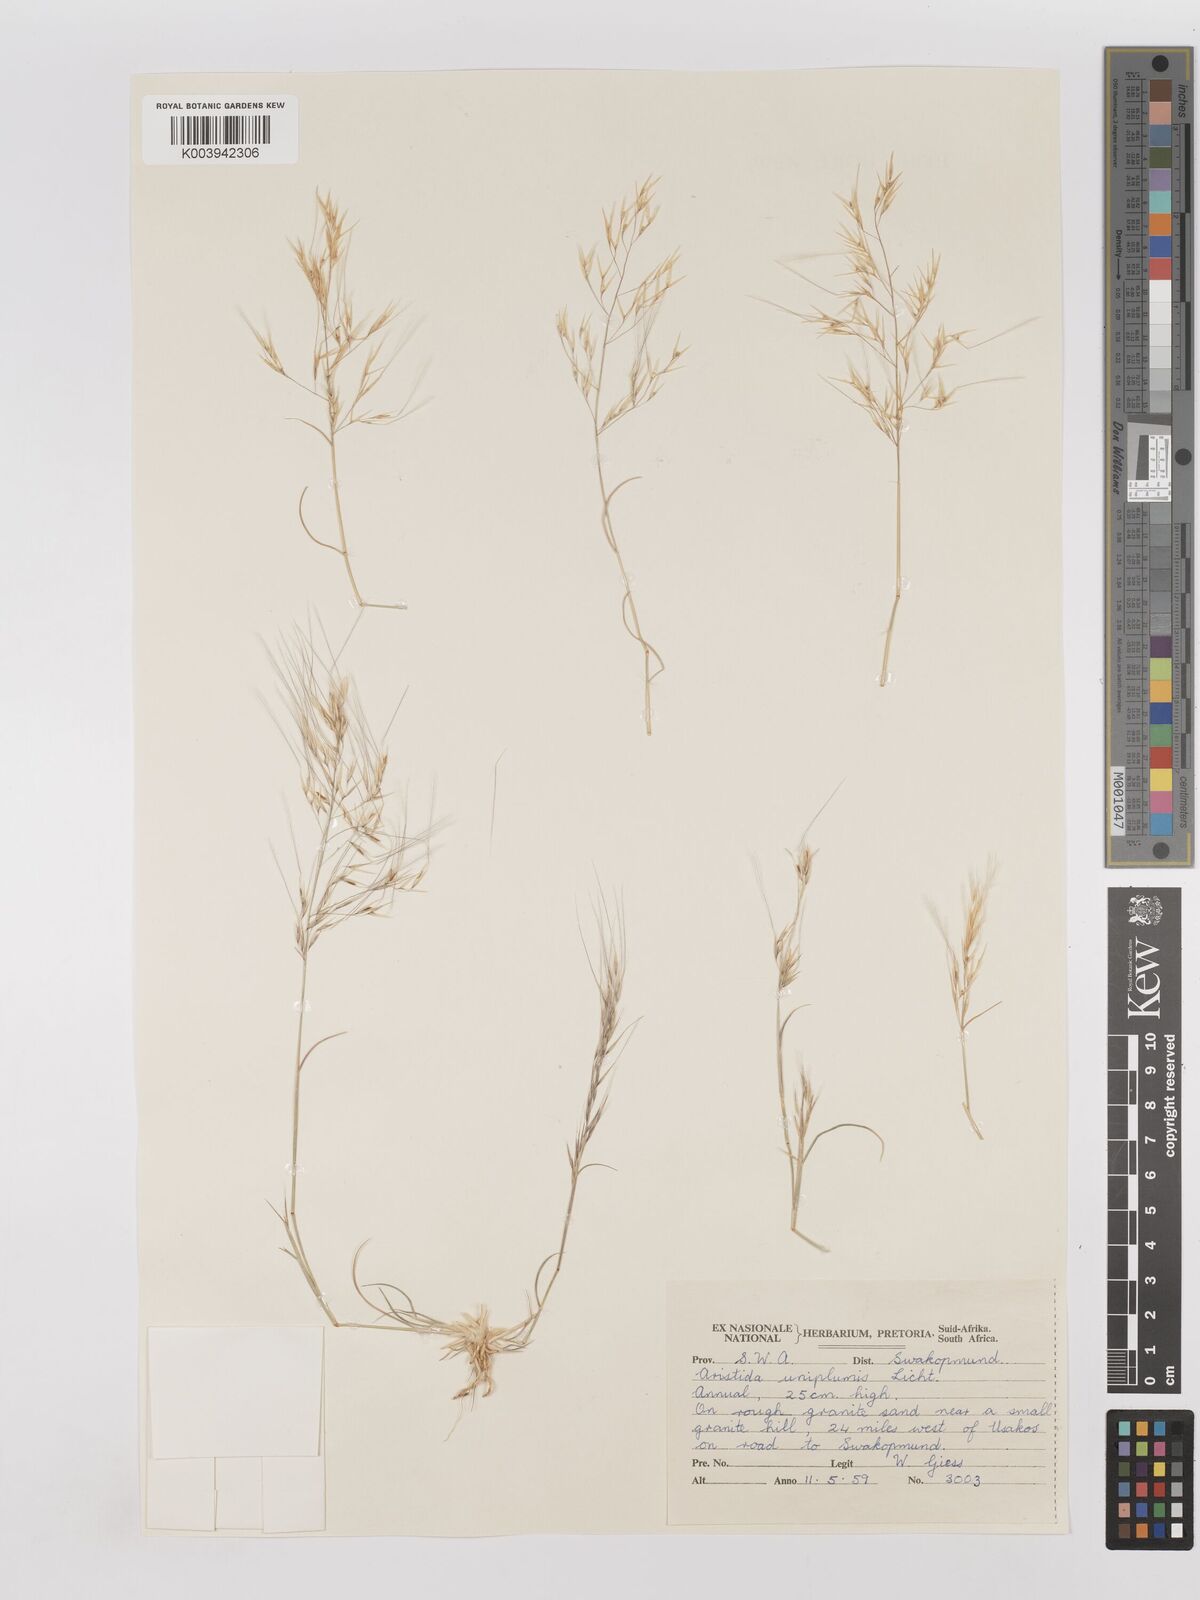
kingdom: Plantae
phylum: Tracheophyta
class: Liliopsida
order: Poales
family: Poaceae
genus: Stipagrostis
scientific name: Stipagrostis uniplumis
